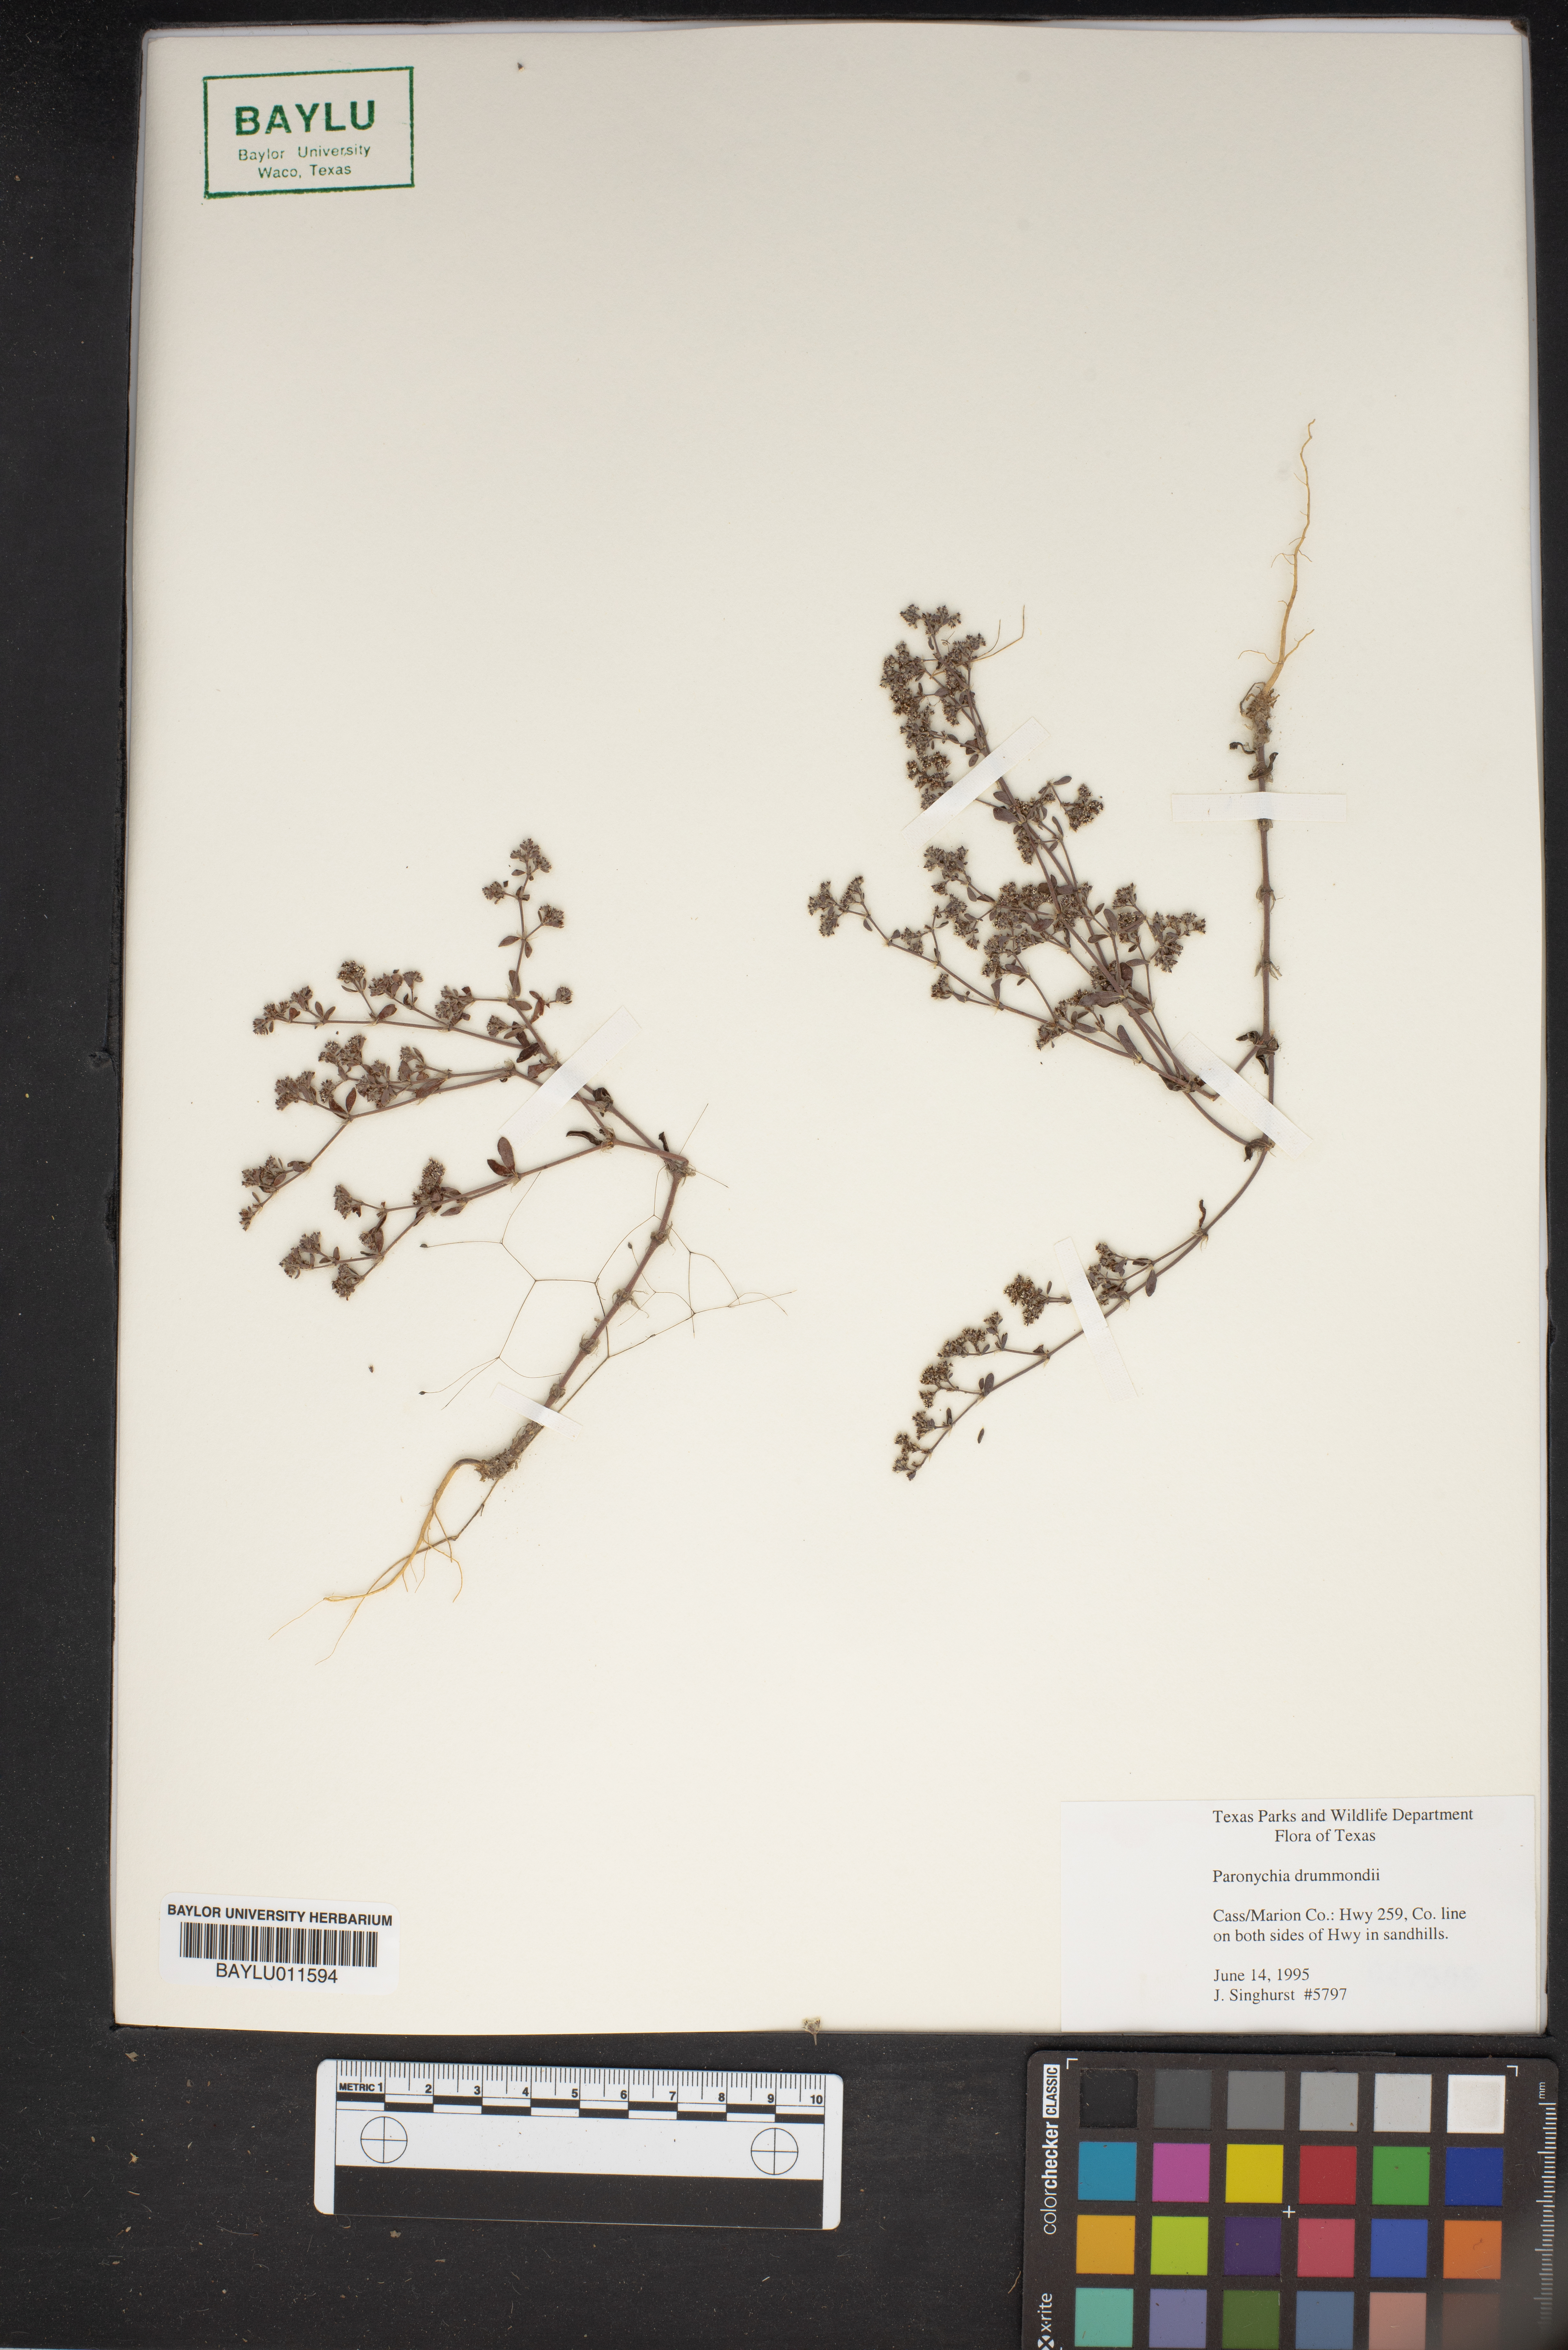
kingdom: Plantae
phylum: Tracheophyta
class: Magnoliopsida
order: Caryophyllales
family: Caryophyllaceae
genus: Paronychia
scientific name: Paronychia drummondii
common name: Drummond's nailwort
